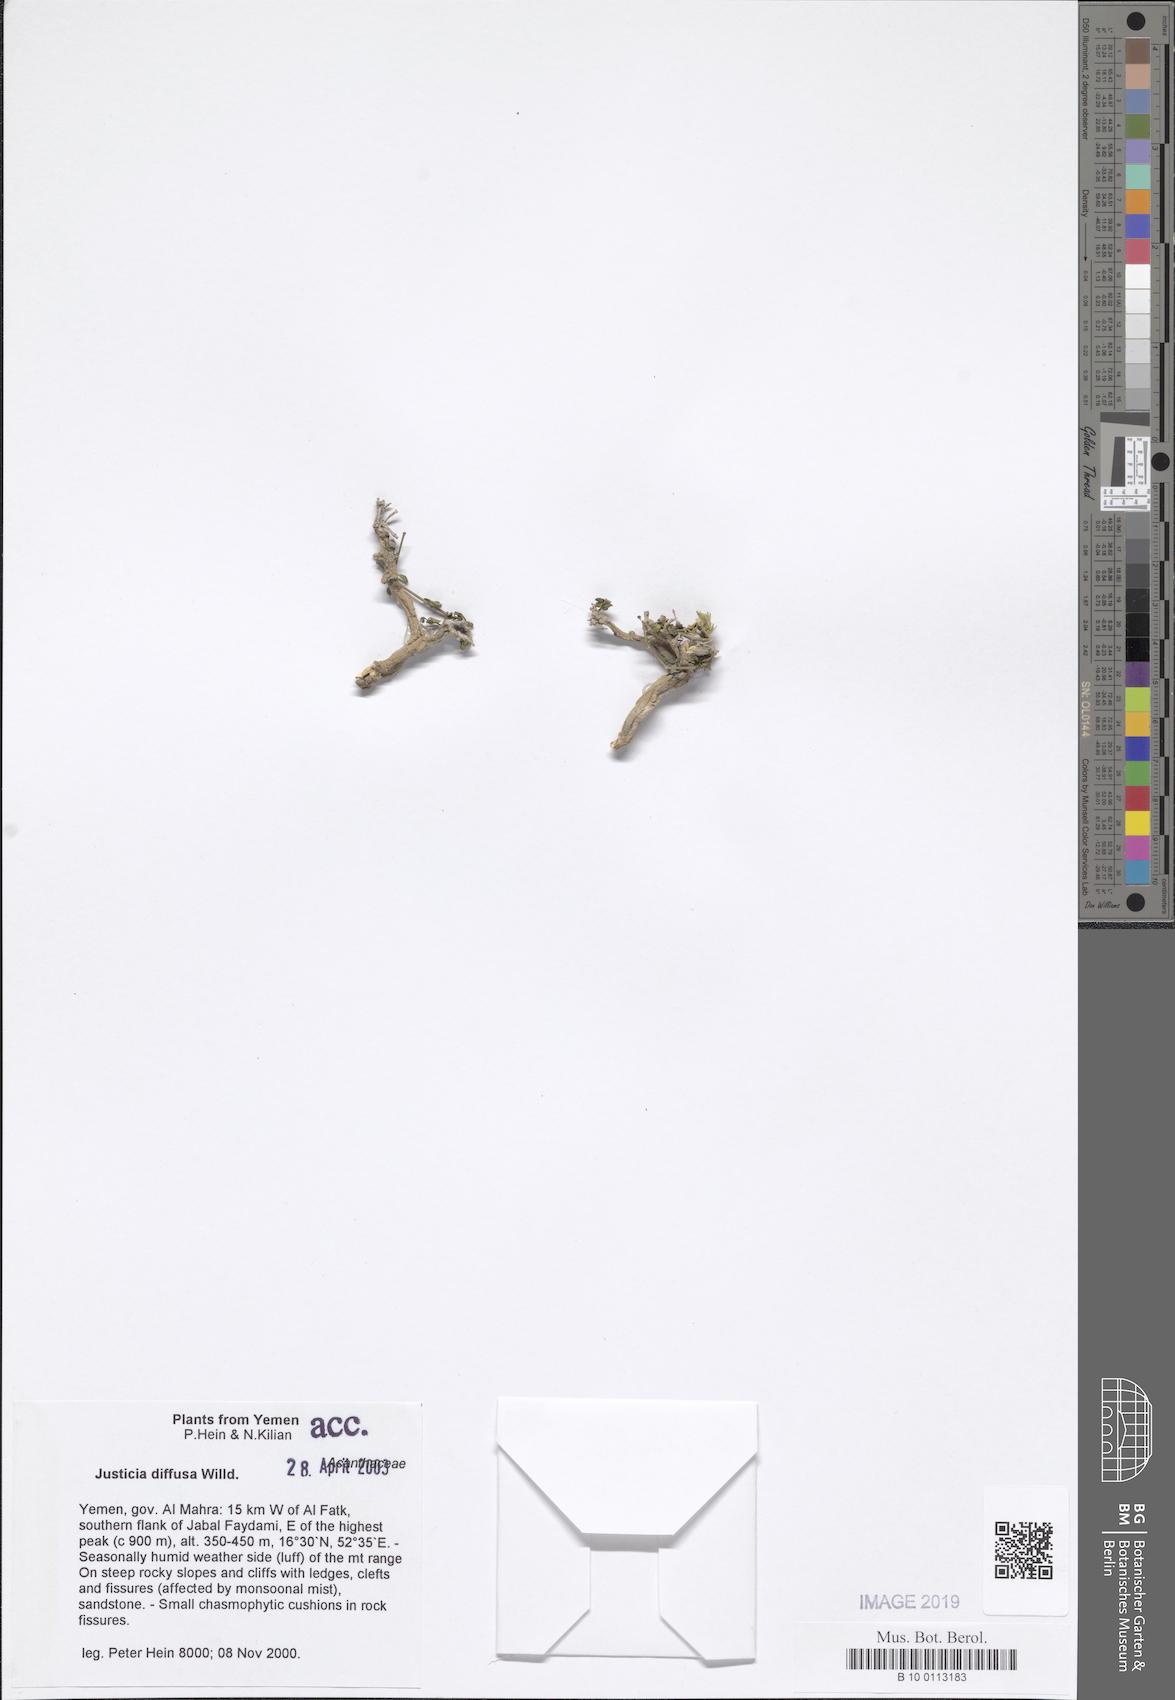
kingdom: Plantae
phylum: Tracheophyta
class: Magnoliopsida
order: Lamiales
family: Acanthaceae
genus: Rostellularia
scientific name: Rostellularia diffusa
